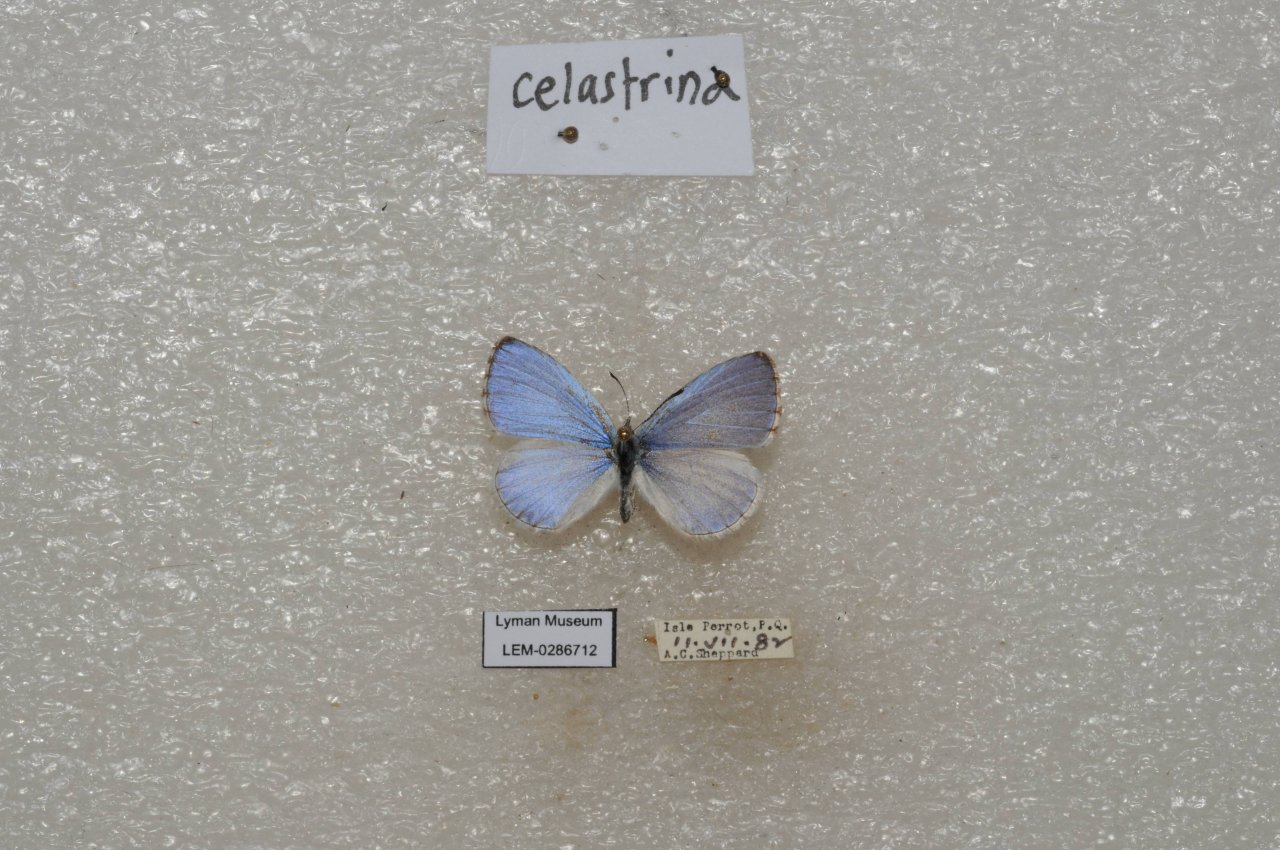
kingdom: Animalia
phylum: Arthropoda
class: Insecta
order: Lepidoptera
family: Lycaenidae
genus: Celastrina
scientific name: Celastrina lucia
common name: Northern Spring Azure
